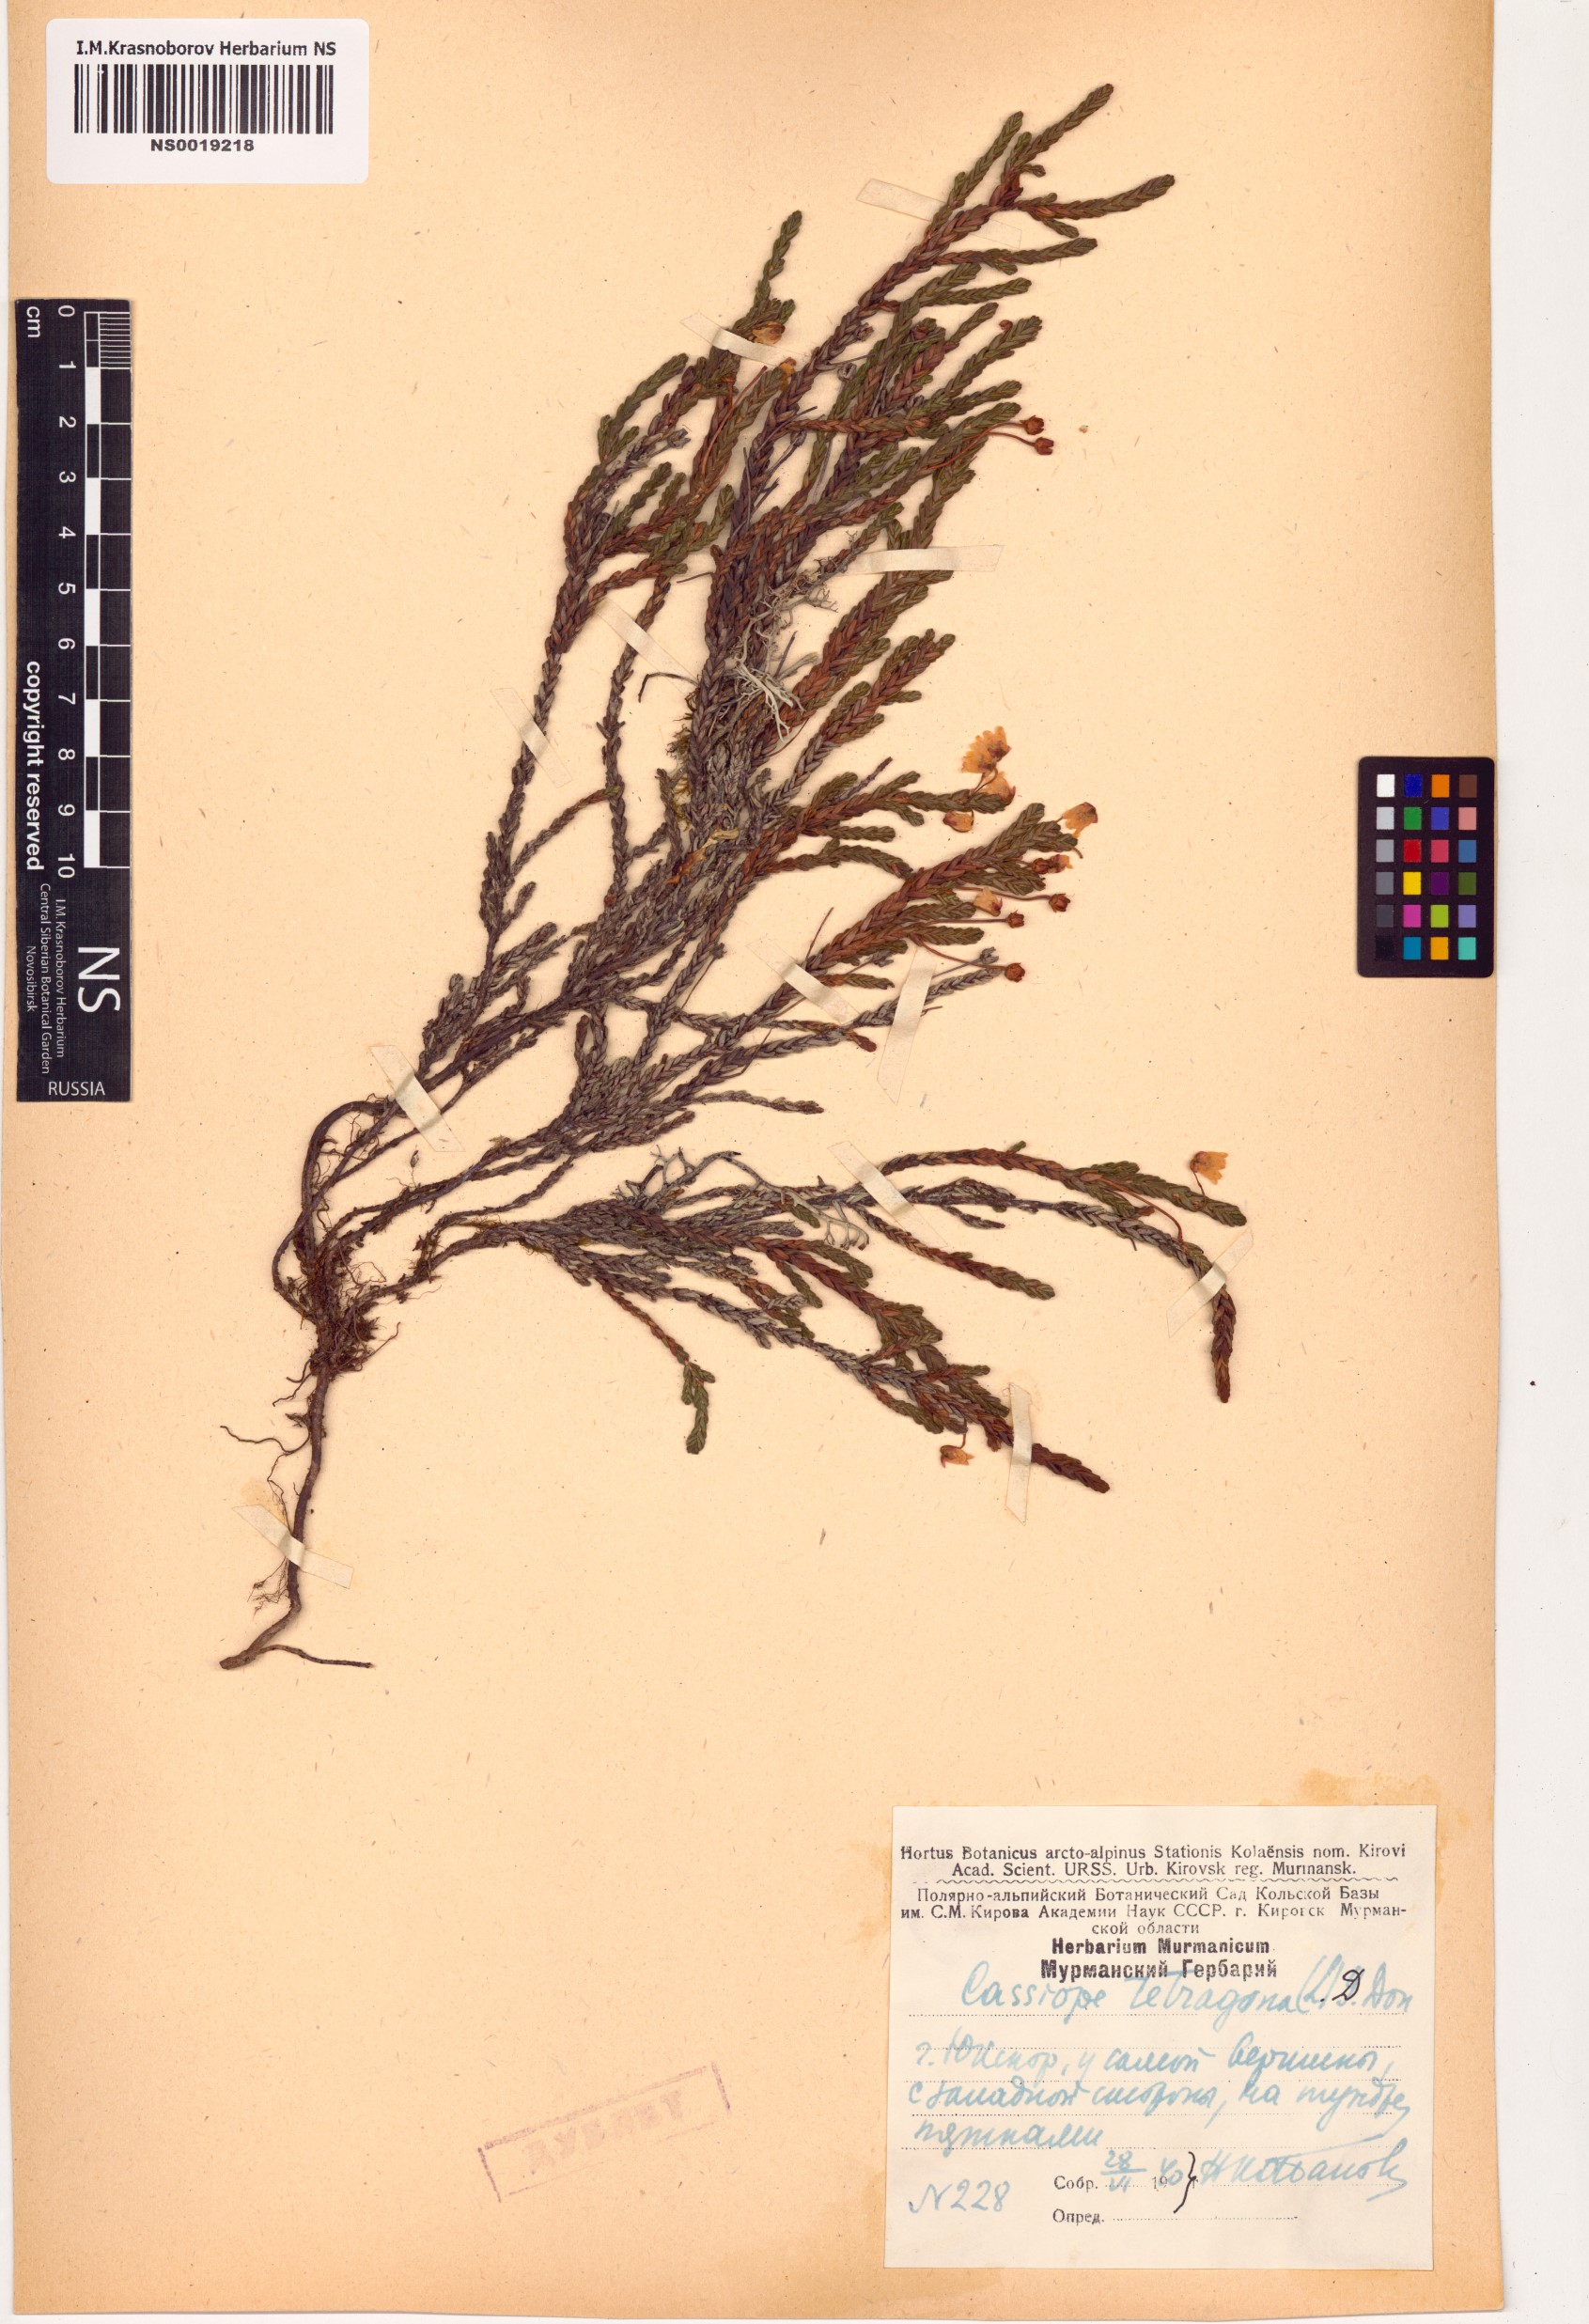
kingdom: Plantae
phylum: Tracheophyta
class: Magnoliopsida
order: Ericales
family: Ericaceae
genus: Cassiope
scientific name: Cassiope tetragona
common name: Arctic bell heather
